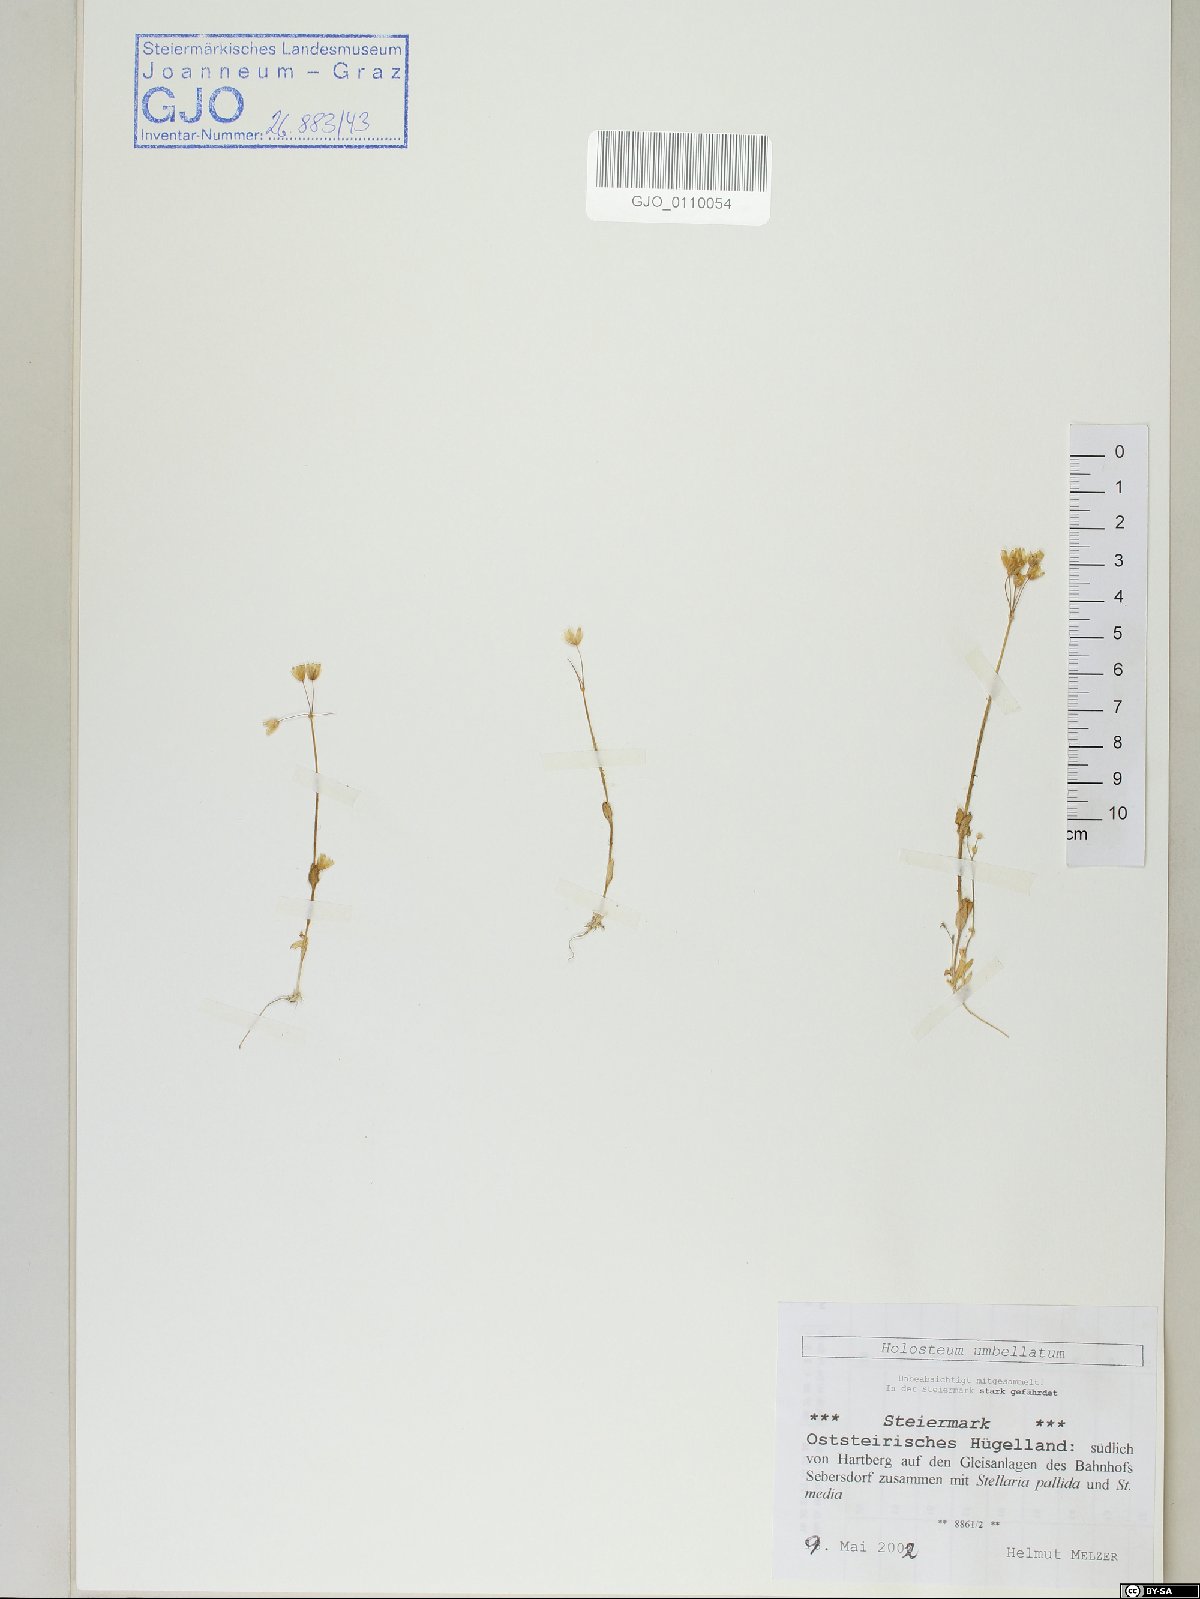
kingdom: Plantae
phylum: Tracheophyta
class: Magnoliopsida
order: Caryophyllales
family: Caryophyllaceae
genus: Holosteum
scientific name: Holosteum umbellatum
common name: Jagged chickweed
